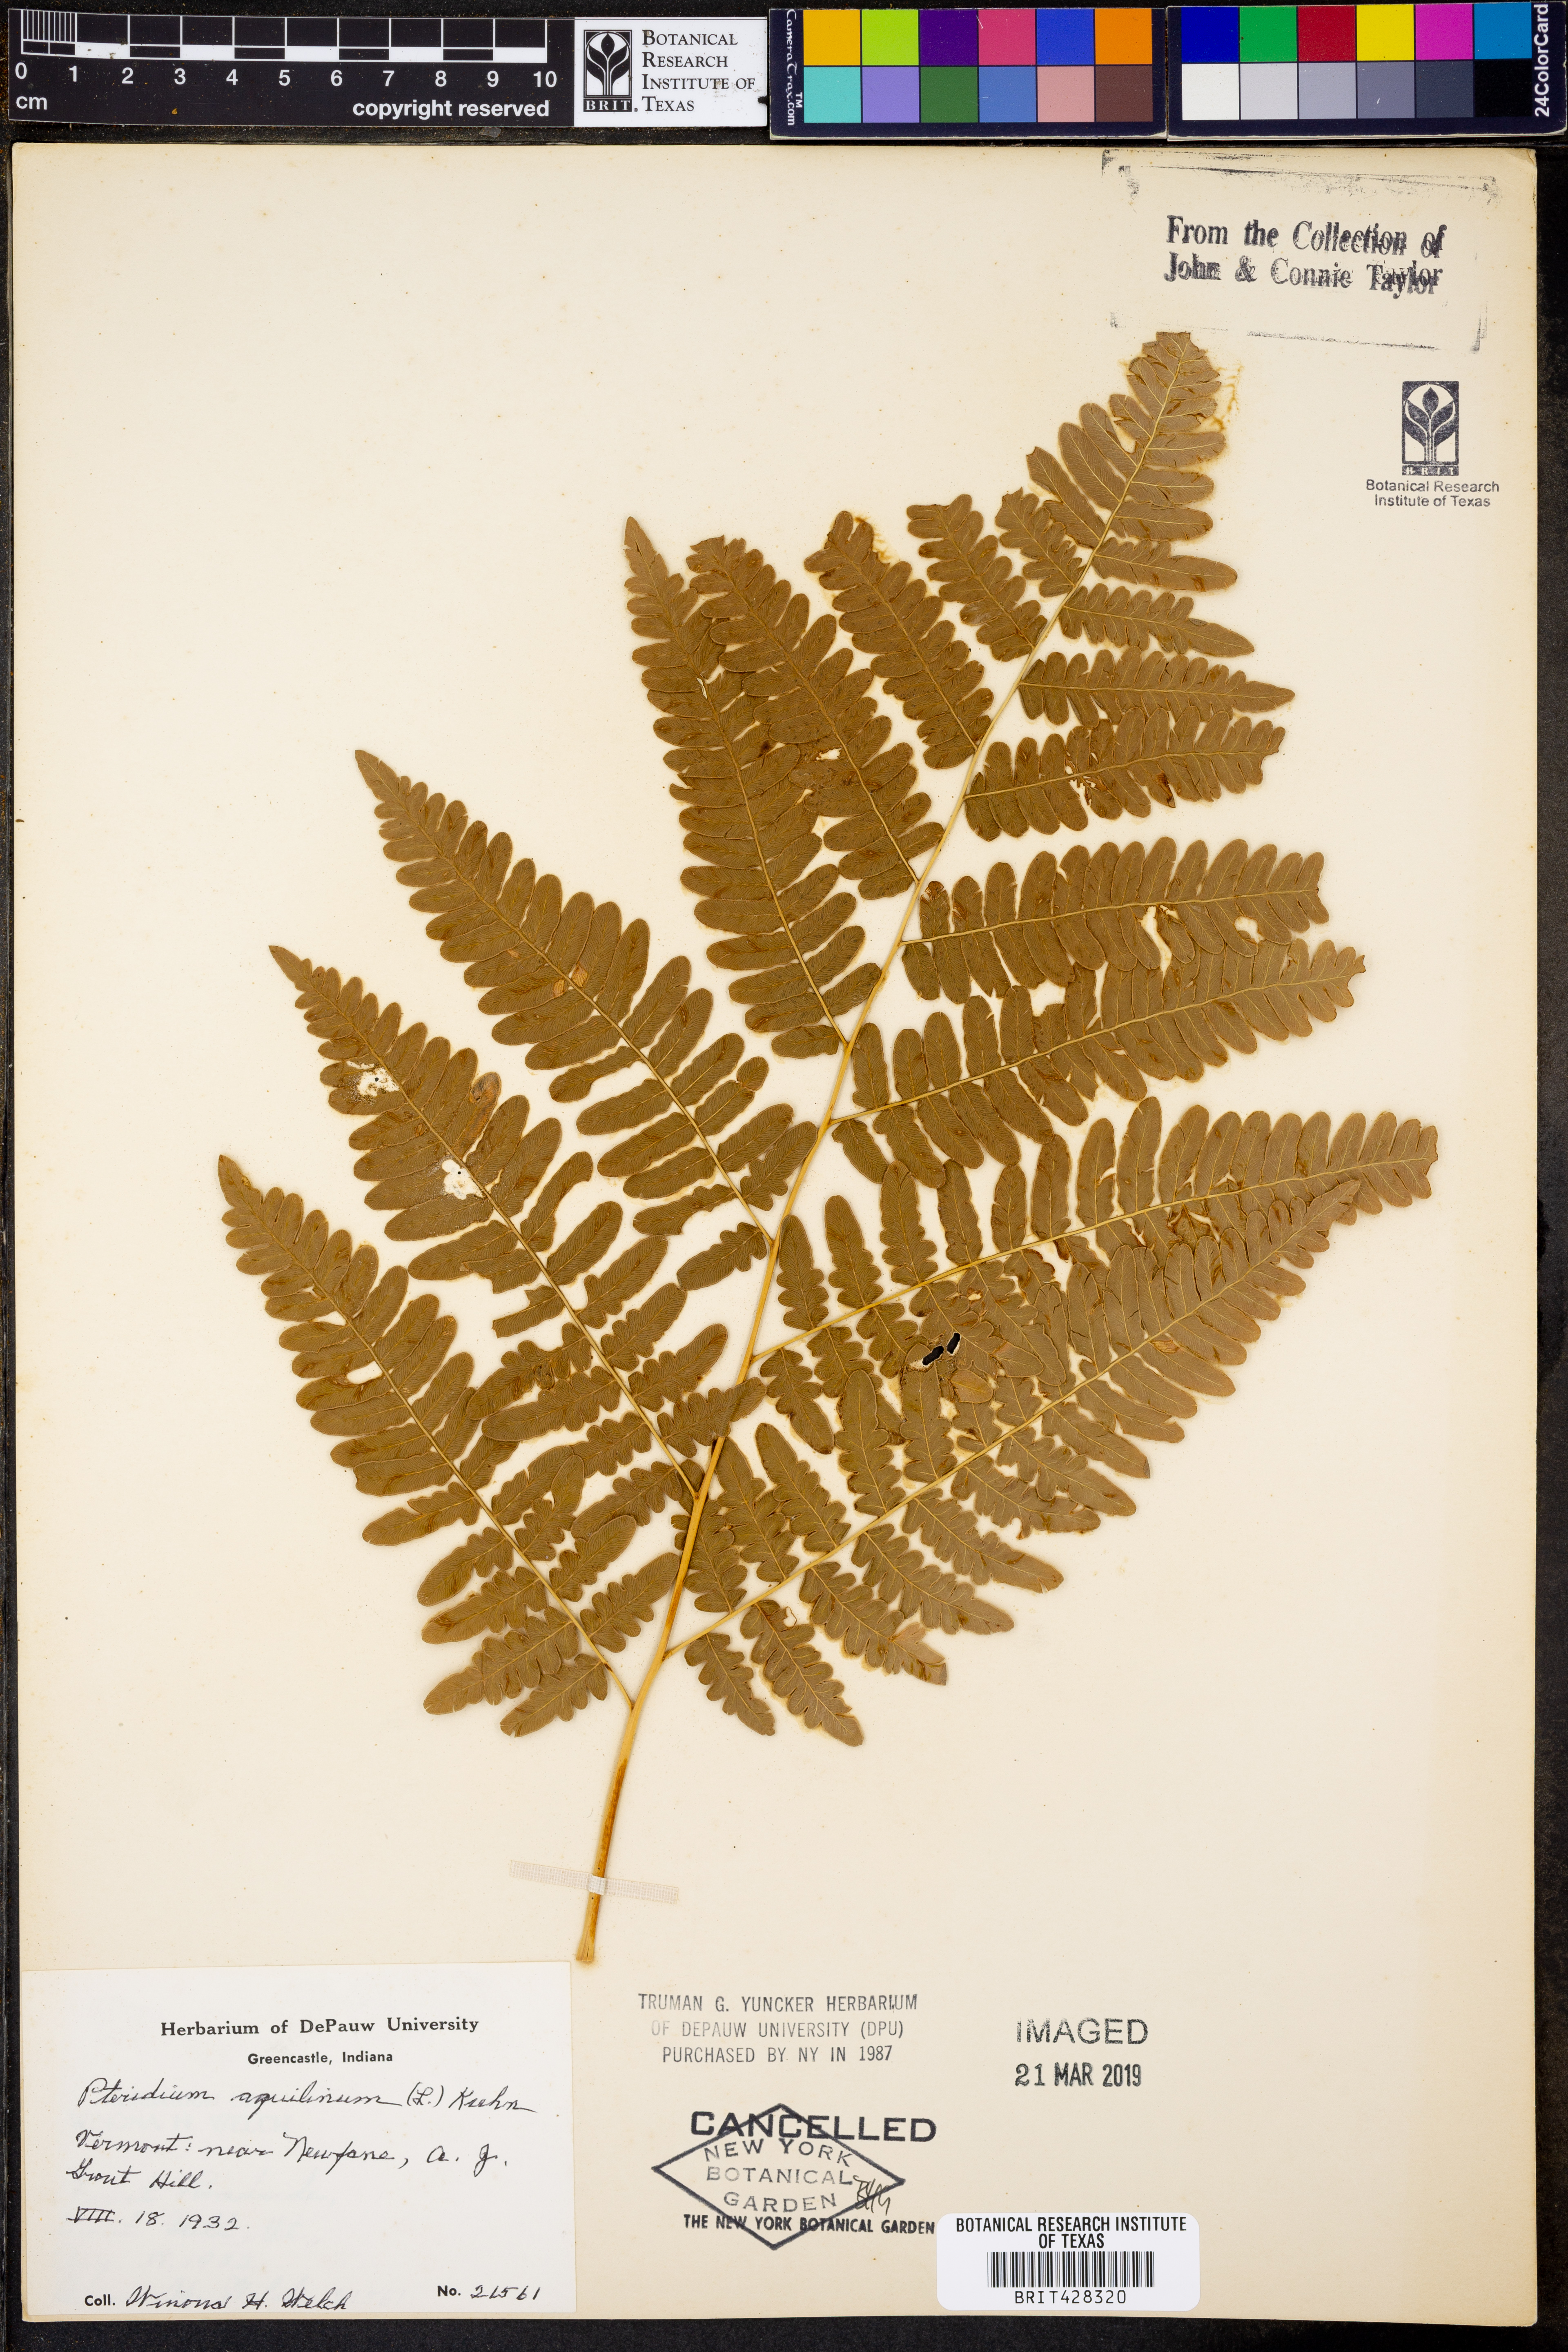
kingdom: Plantae
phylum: Tracheophyta
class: Polypodiopsida
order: Polypodiales
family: Dennstaedtiaceae
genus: Pteridium
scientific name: Pteridium aquilinum
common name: Bracken
